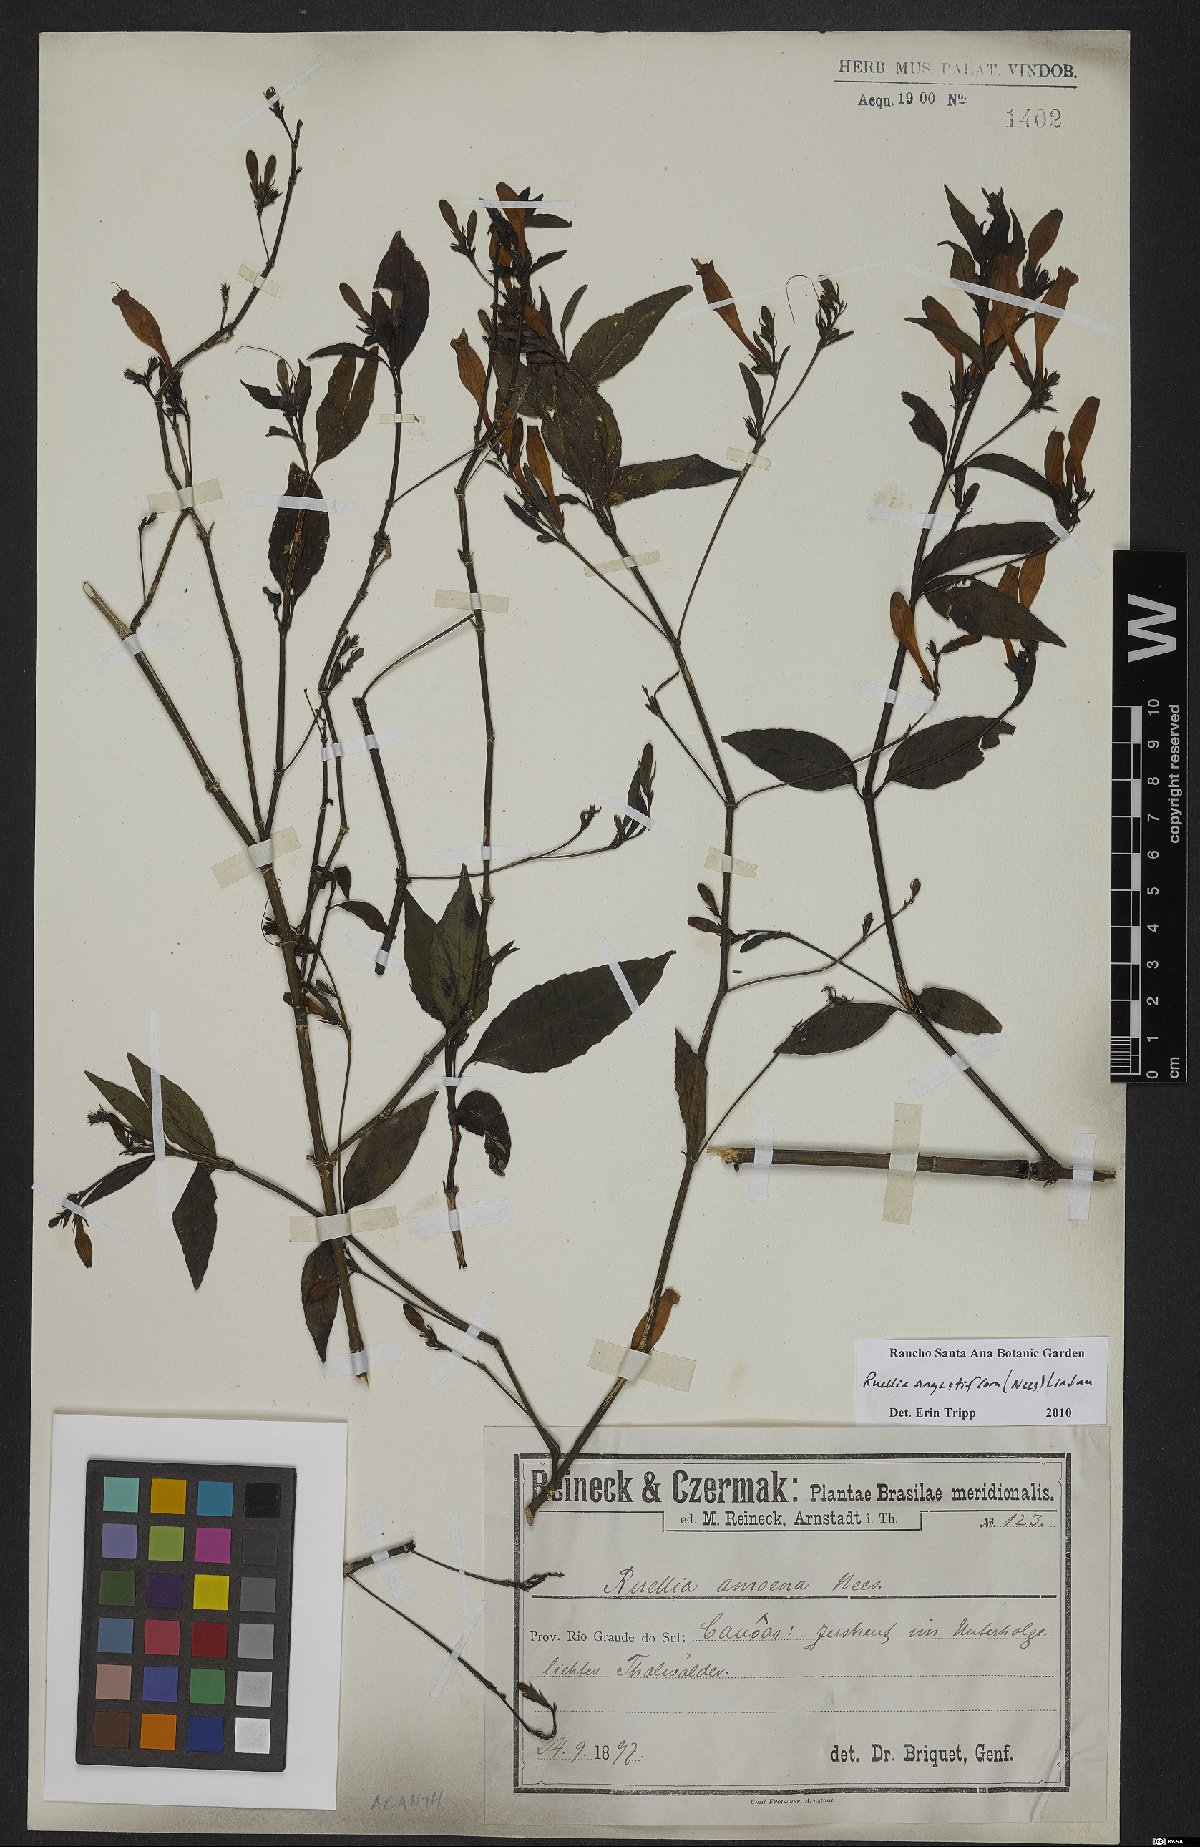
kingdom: Plantae
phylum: Tracheophyta
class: Magnoliopsida
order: Lamiales
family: Acanthaceae
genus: Ruellia
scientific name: Ruellia simplex
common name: Softseed wild petunia
